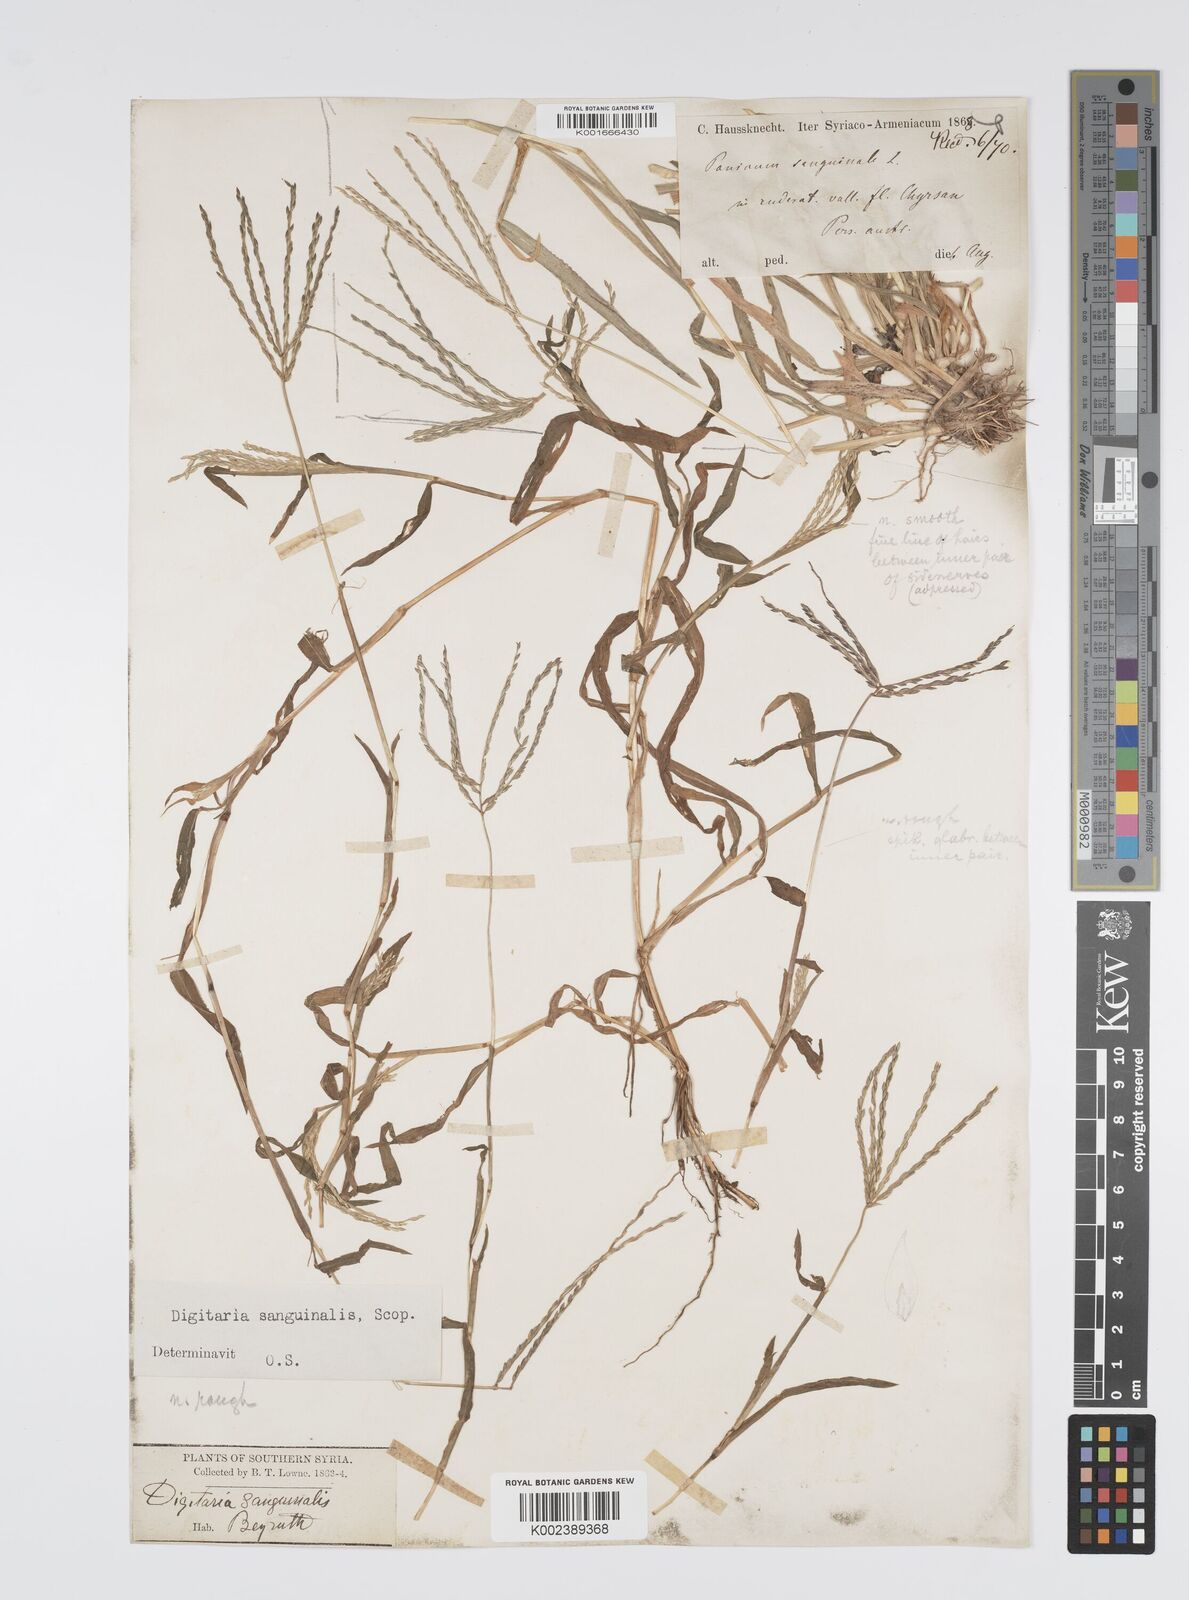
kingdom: Plantae
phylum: Tracheophyta
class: Liliopsida
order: Poales
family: Poaceae
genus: Digitaria
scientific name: Digitaria sanguinalis
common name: Hairy crabgrass
